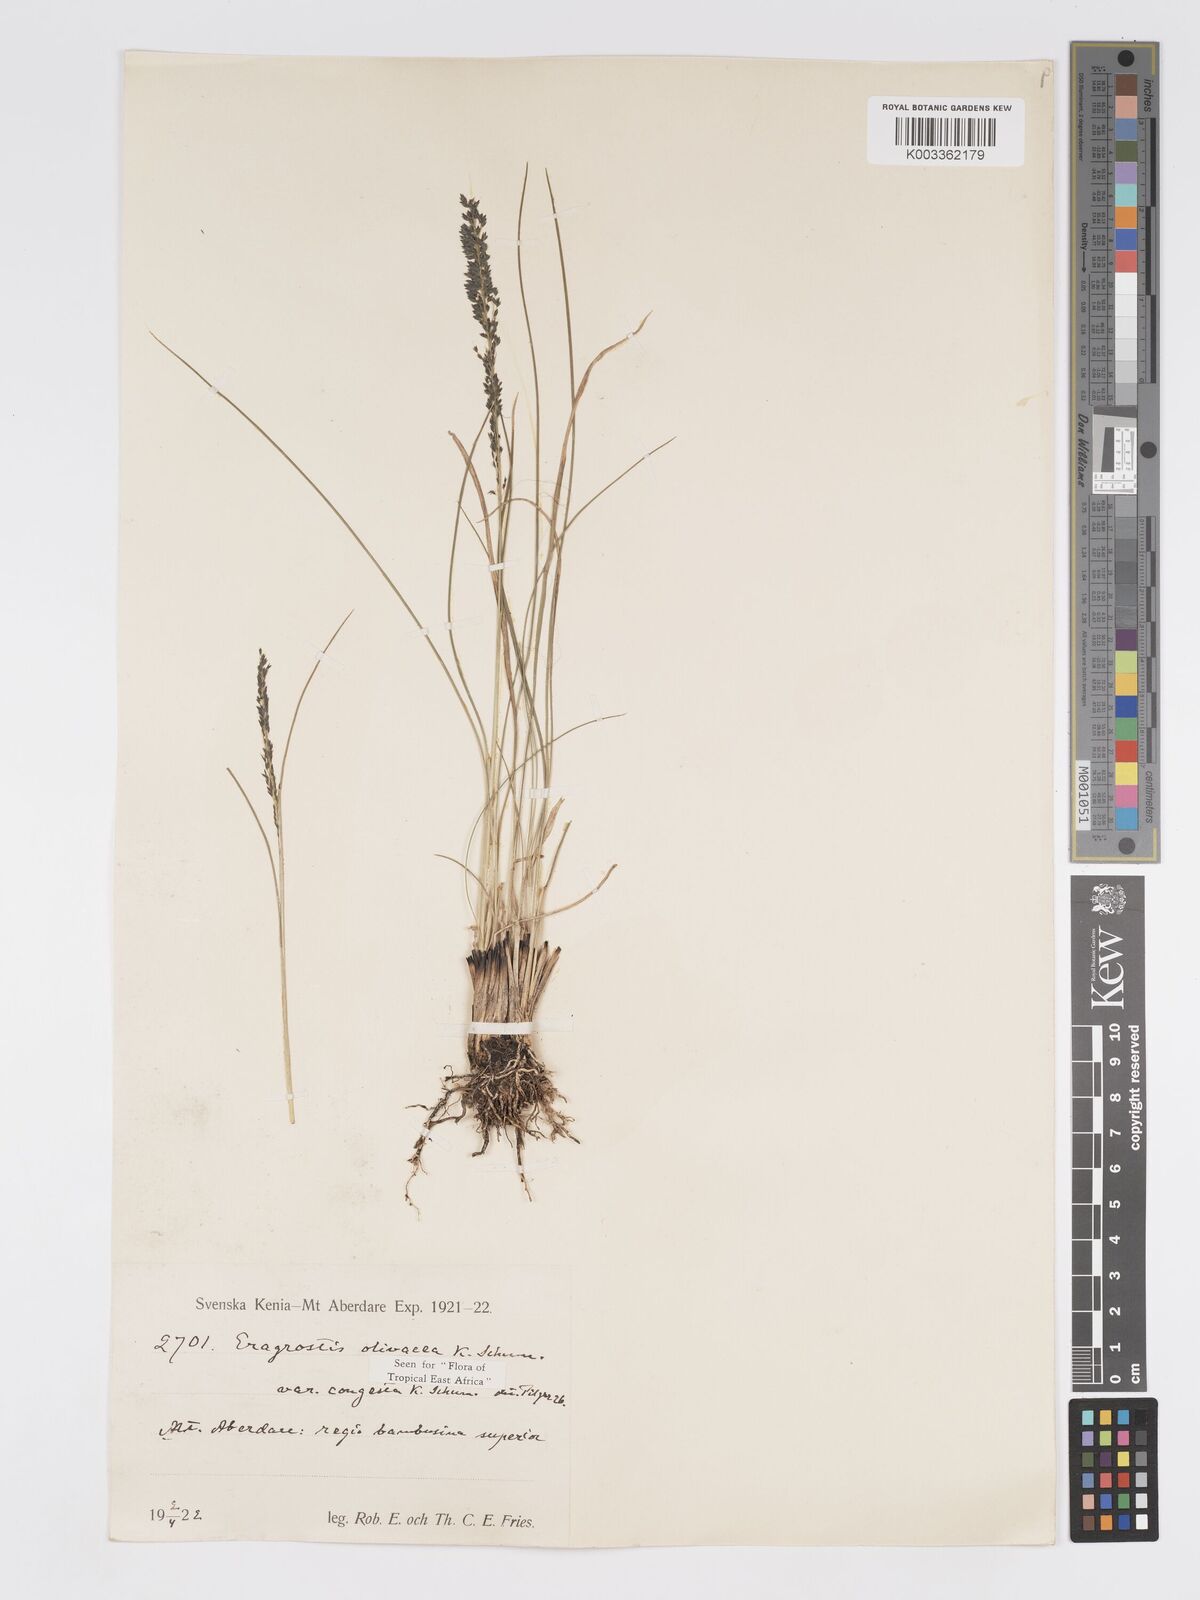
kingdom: Plantae
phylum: Tracheophyta
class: Liliopsida
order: Poales
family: Poaceae
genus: Eragrostis
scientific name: Eragrostis olivacea
